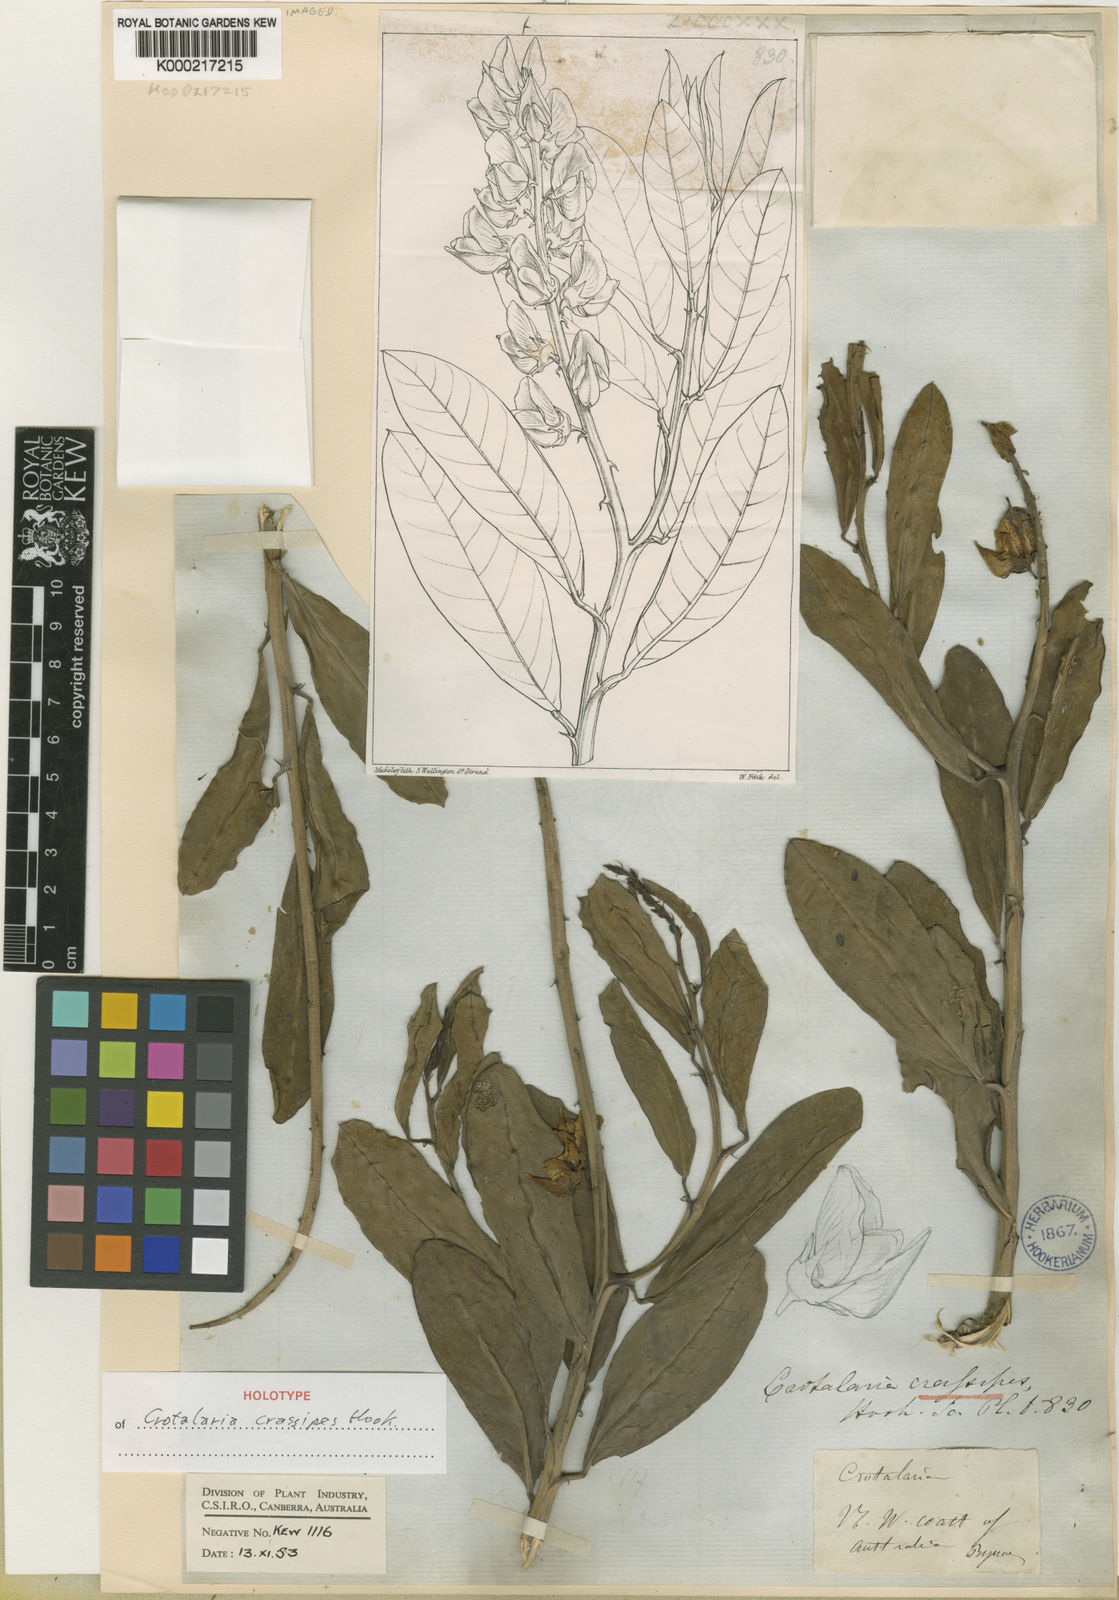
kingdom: Plantae
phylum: Tracheophyta
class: Magnoliopsida
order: Fabales
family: Fabaceae
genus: Crotalaria
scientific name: Crotalaria novae-hollandiae
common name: New holland rattlepod
